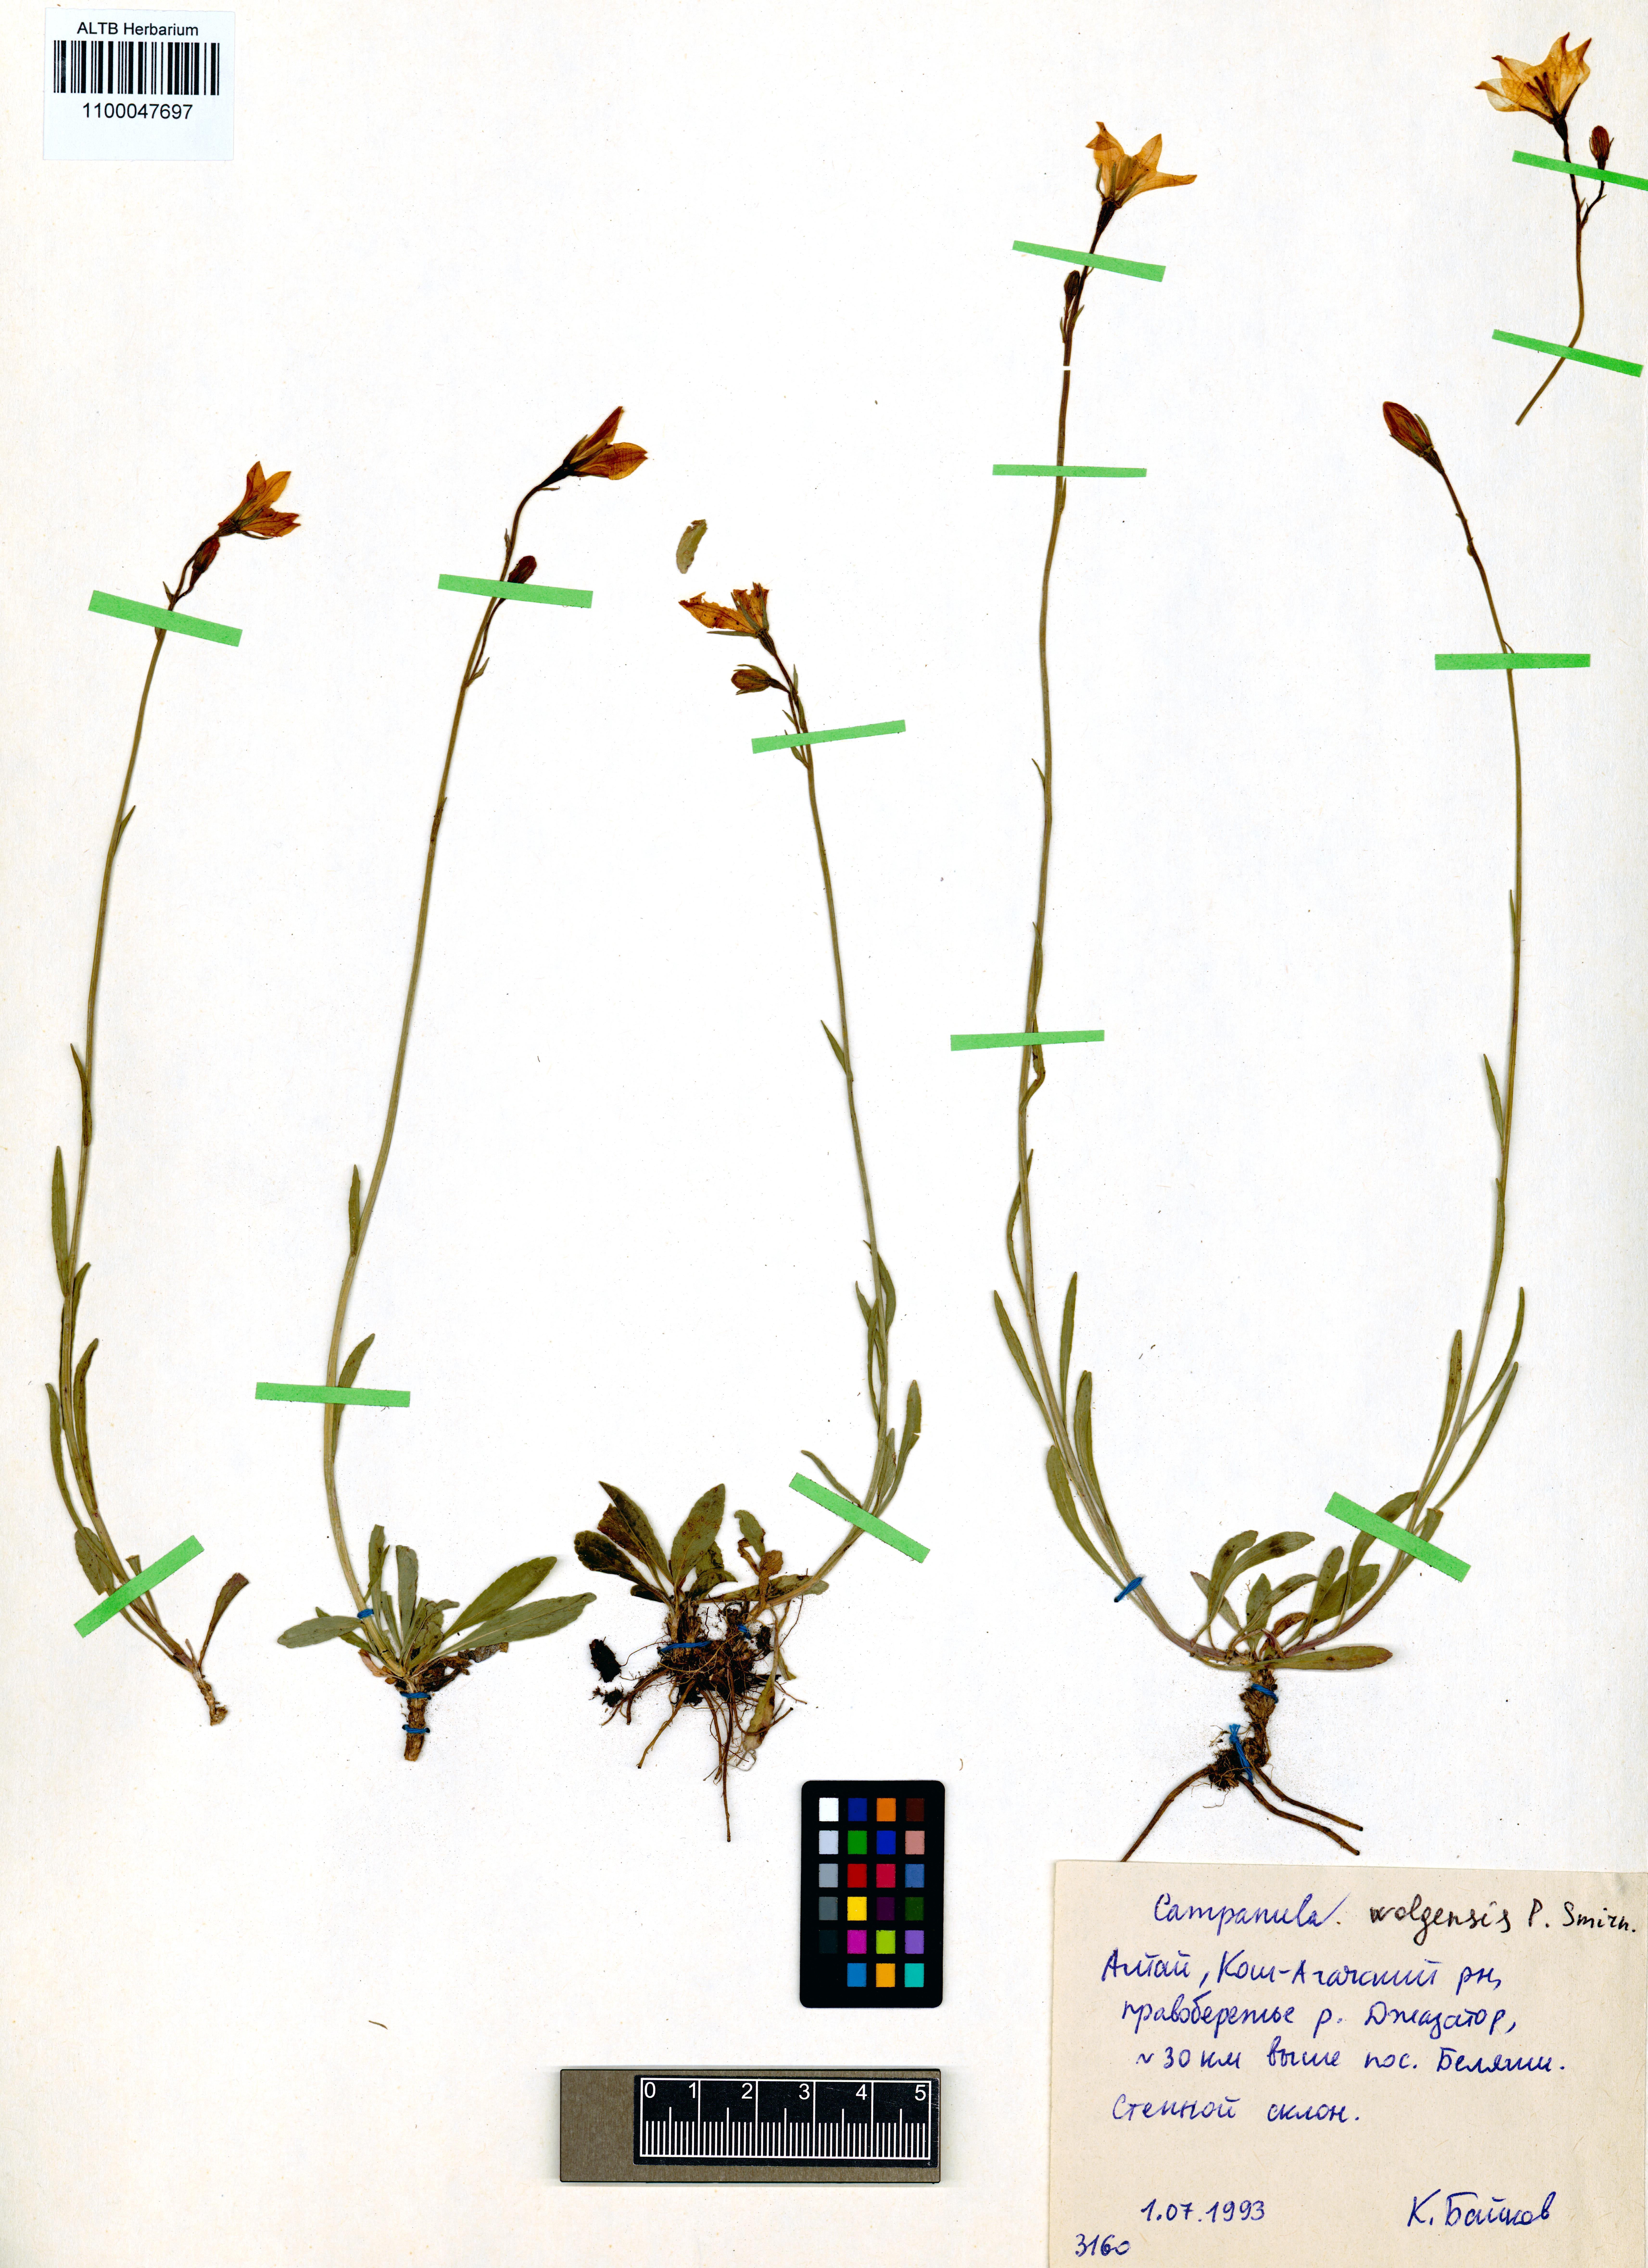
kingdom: Plantae
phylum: Tracheophyta
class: Magnoliopsida
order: Asterales
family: Campanulaceae
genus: Campanula
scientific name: Campanula stevenii
